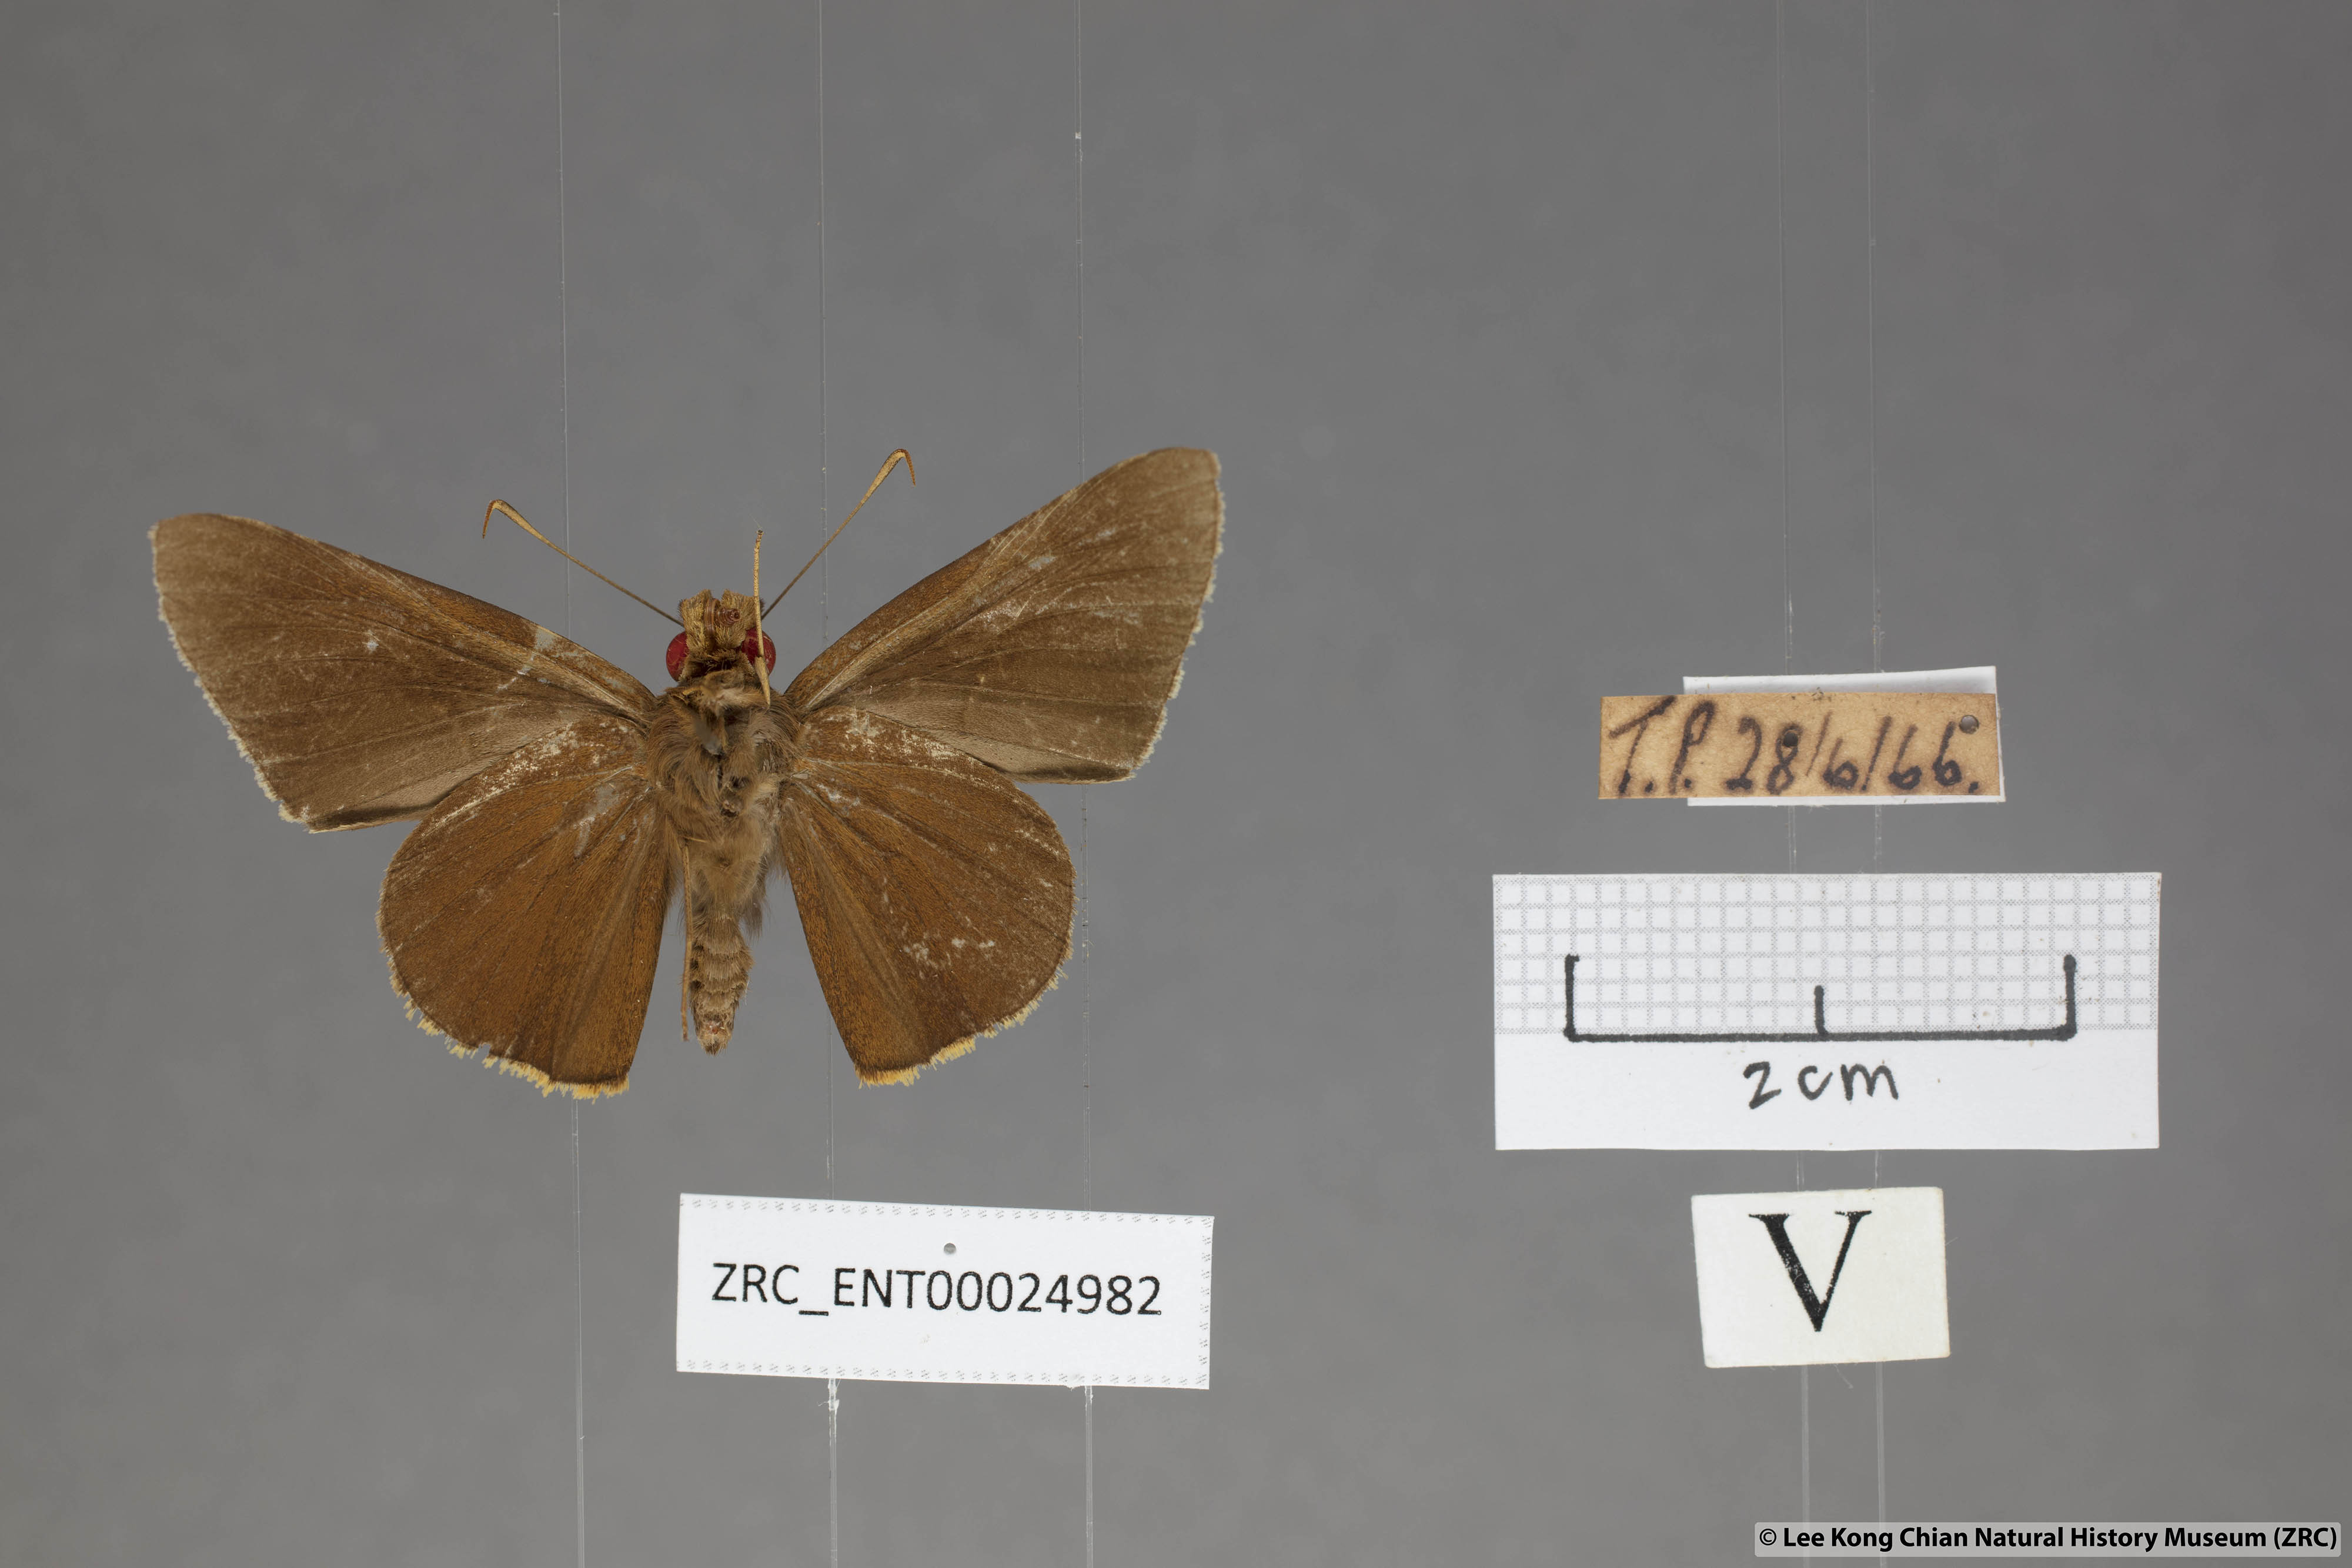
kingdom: Animalia
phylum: Arthropoda
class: Insecta
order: Lepidoptera
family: Hesperiidae
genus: Matapa
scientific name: Matapa druna
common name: Grey-brand redeye
